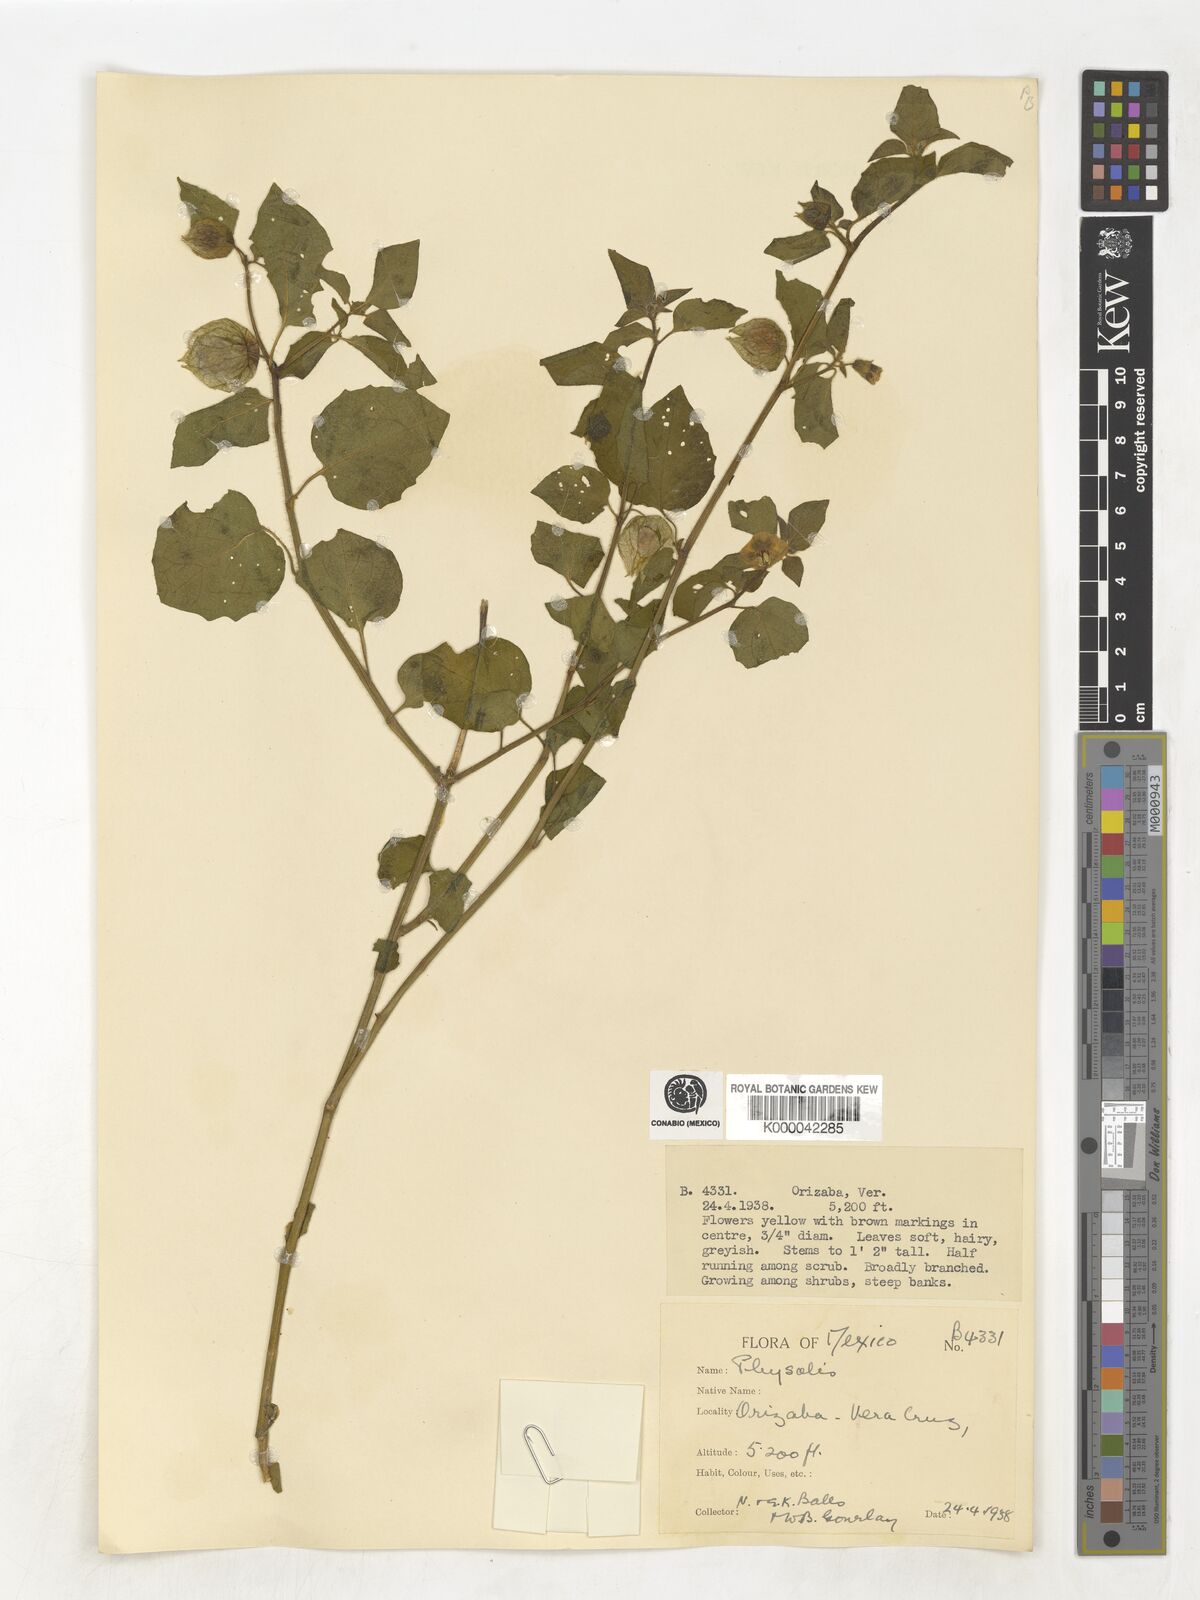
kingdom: Plantae
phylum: Tracheophyta
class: Magnoliopsida
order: Solanales
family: Solanaceae
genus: Physalis
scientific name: Physalis
